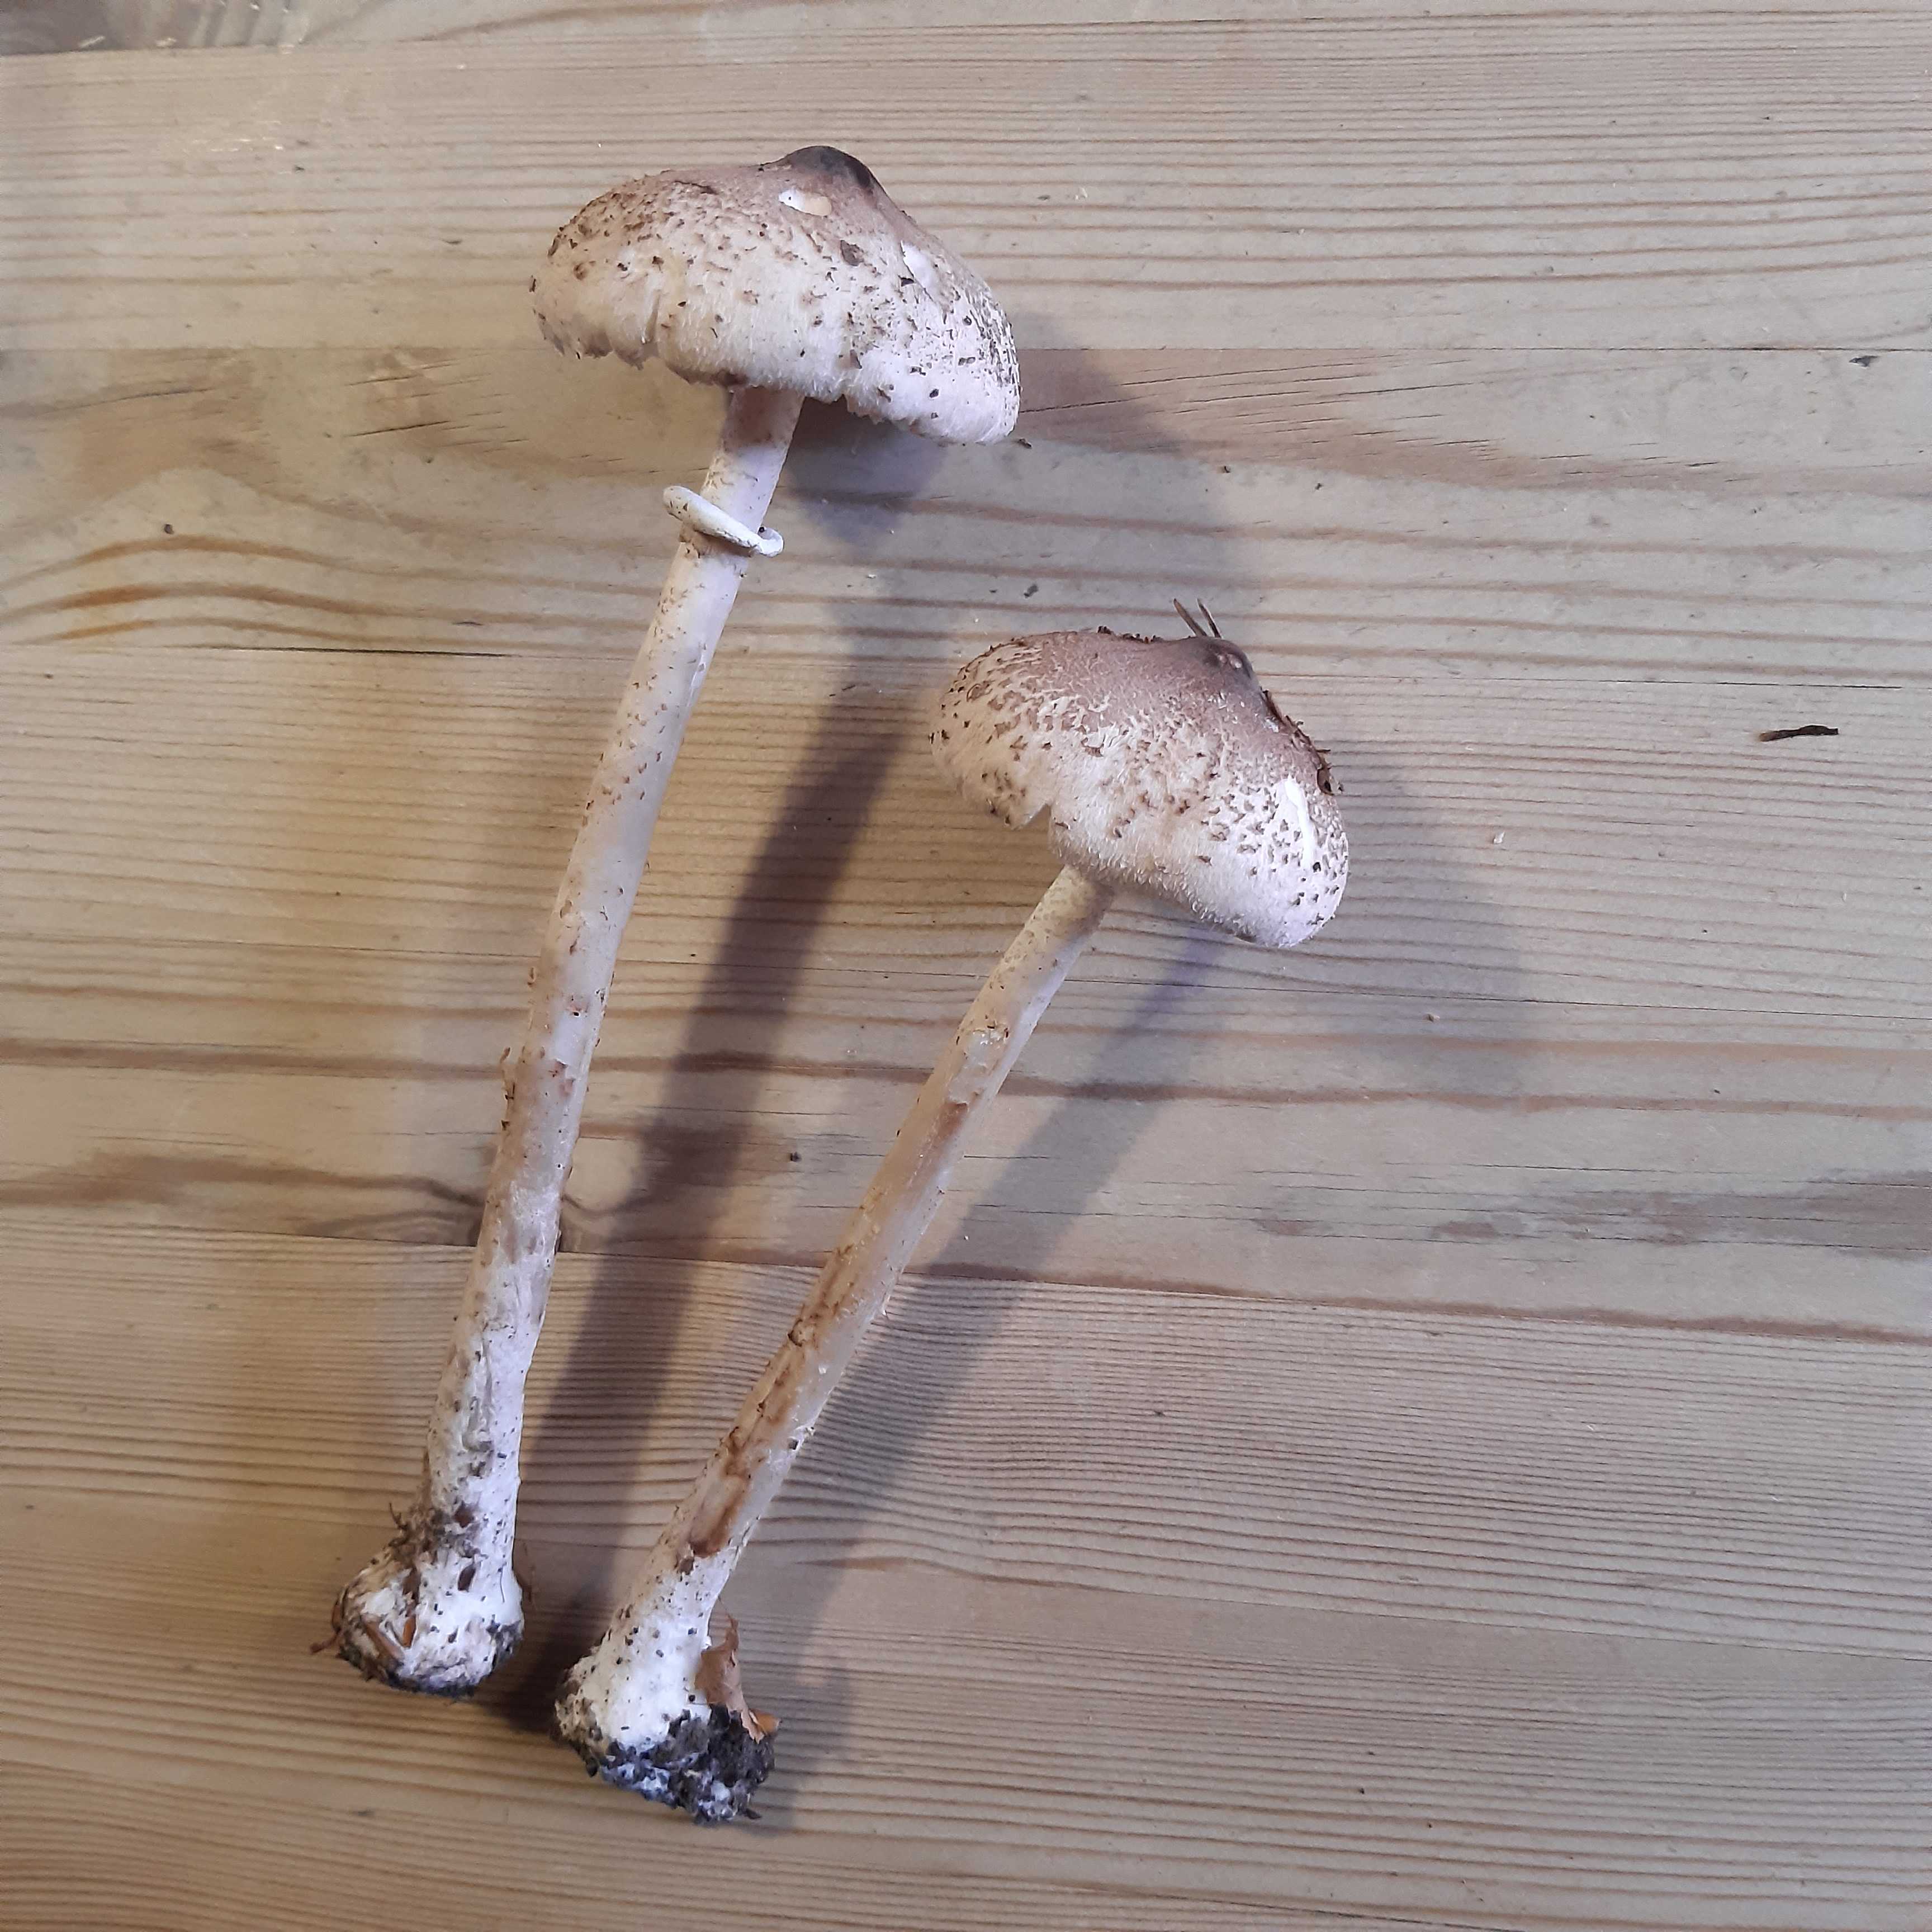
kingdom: Fungi
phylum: Basidiomycota
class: Agaricomycetes
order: Agaricales
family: Agaricaceae
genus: Macrolepiota
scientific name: Macrolepiota mastoidea
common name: puklet kæmpeparasolhat
